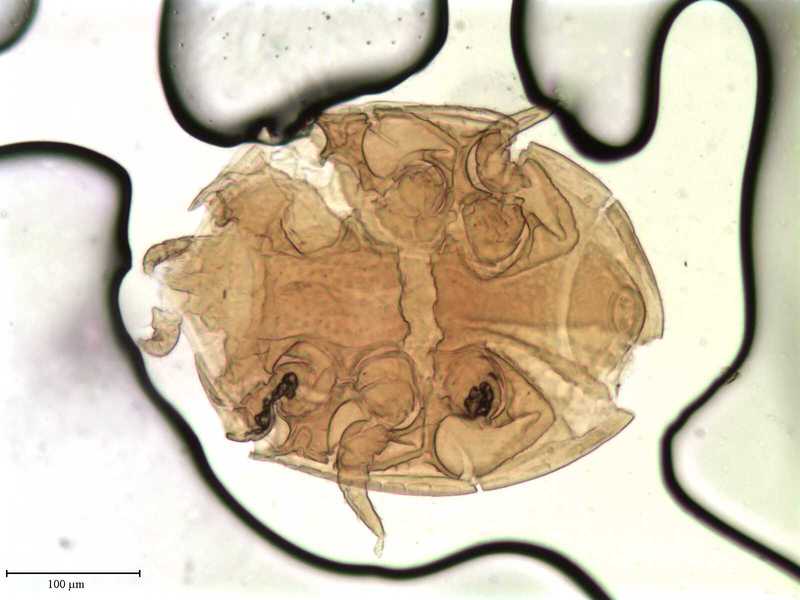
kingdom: Animalia
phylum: Arthropoda
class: Arachnida
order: Mesostigmata
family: Uropodidae
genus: Uropoda
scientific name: Uropoda
